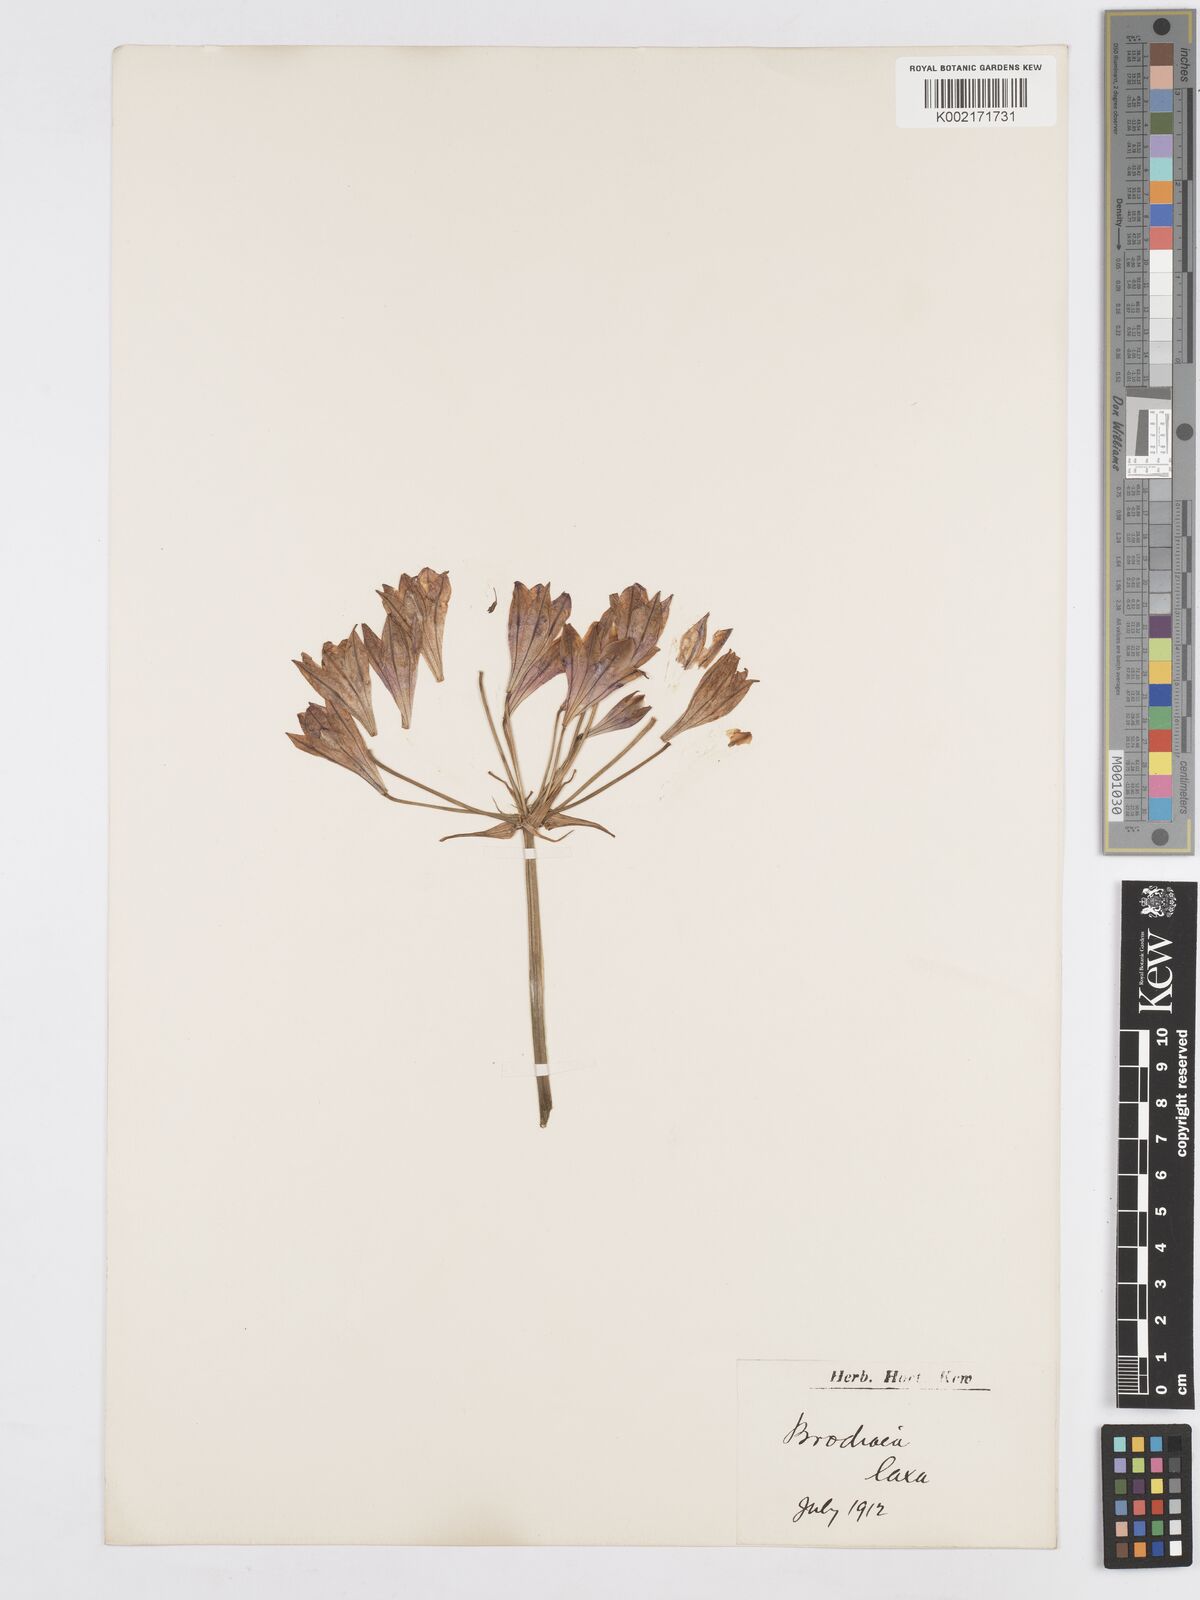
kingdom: Plantae
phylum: Tracheophyta
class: Liliopsida
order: Asparagales
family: Asparagaceae
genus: Triteleia
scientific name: Triteleia
